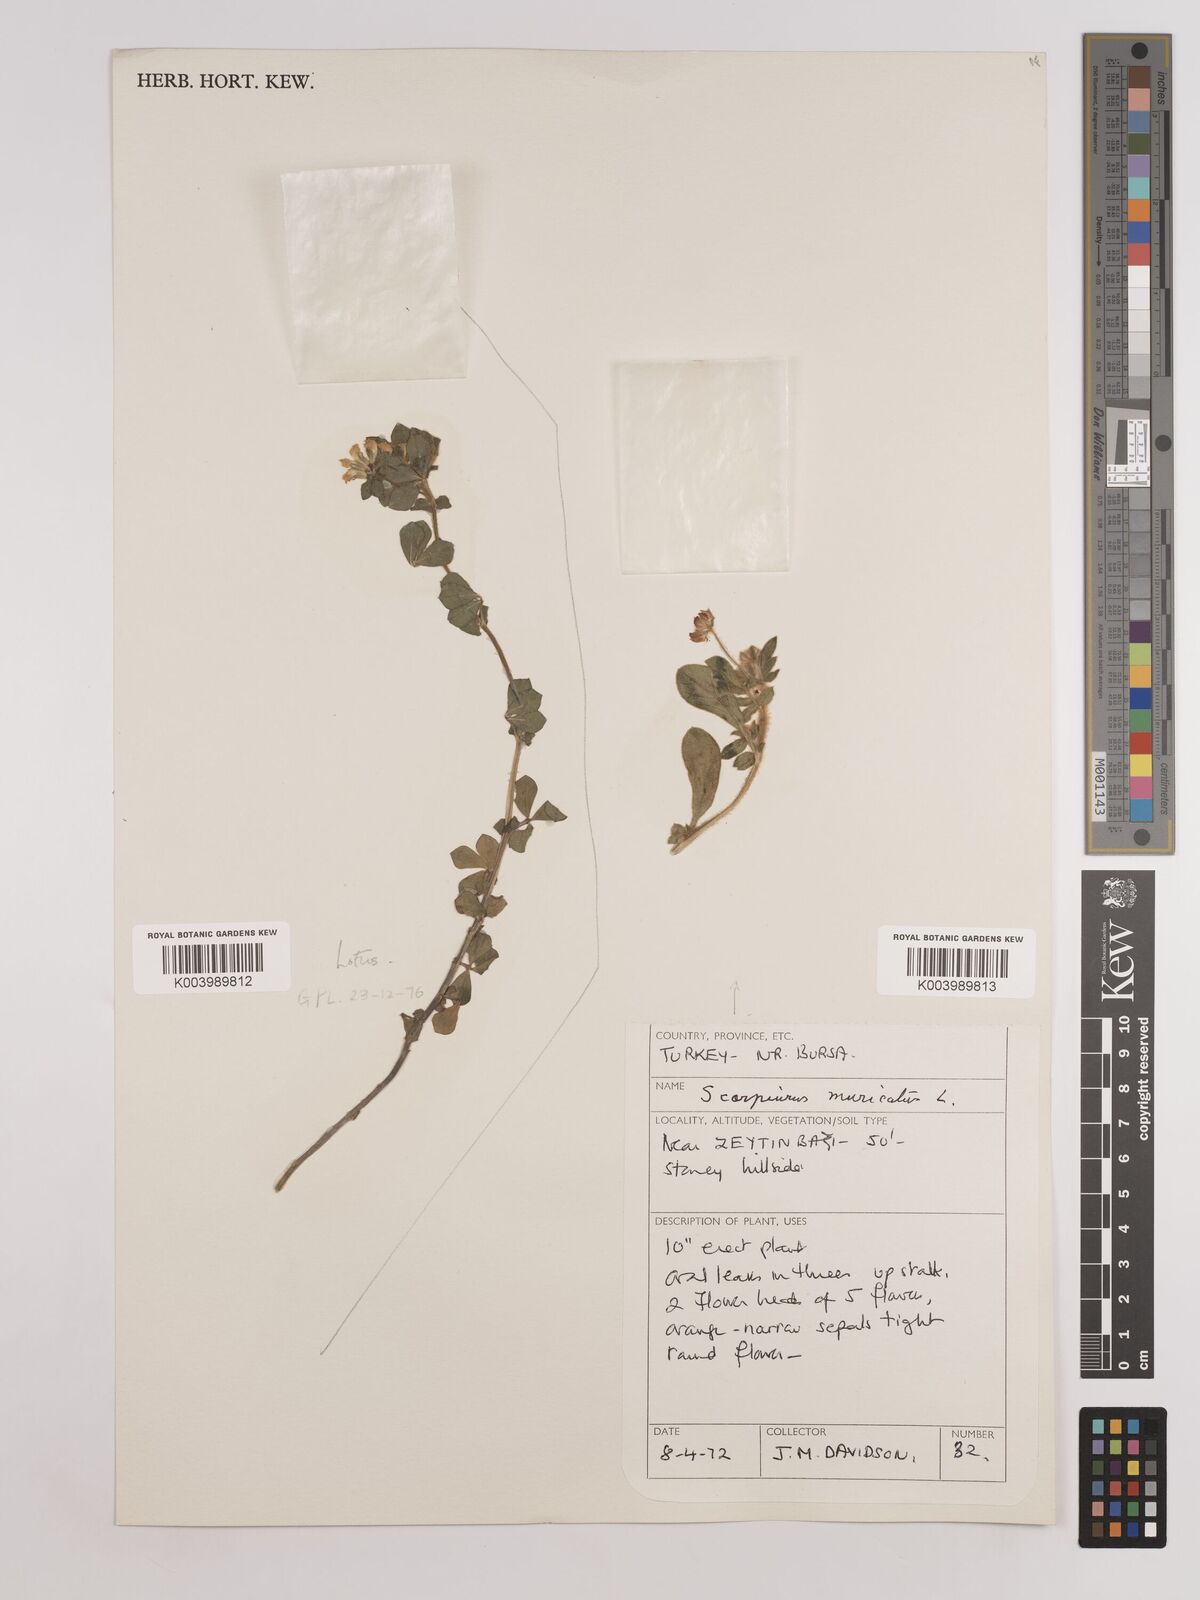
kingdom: Plantae
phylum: Tracheophyta
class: Magnoliopsida
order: Fabales
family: Fabaceae
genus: Scorpiurus
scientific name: Scorpiurus muricatus
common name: Caterpillar-plant
